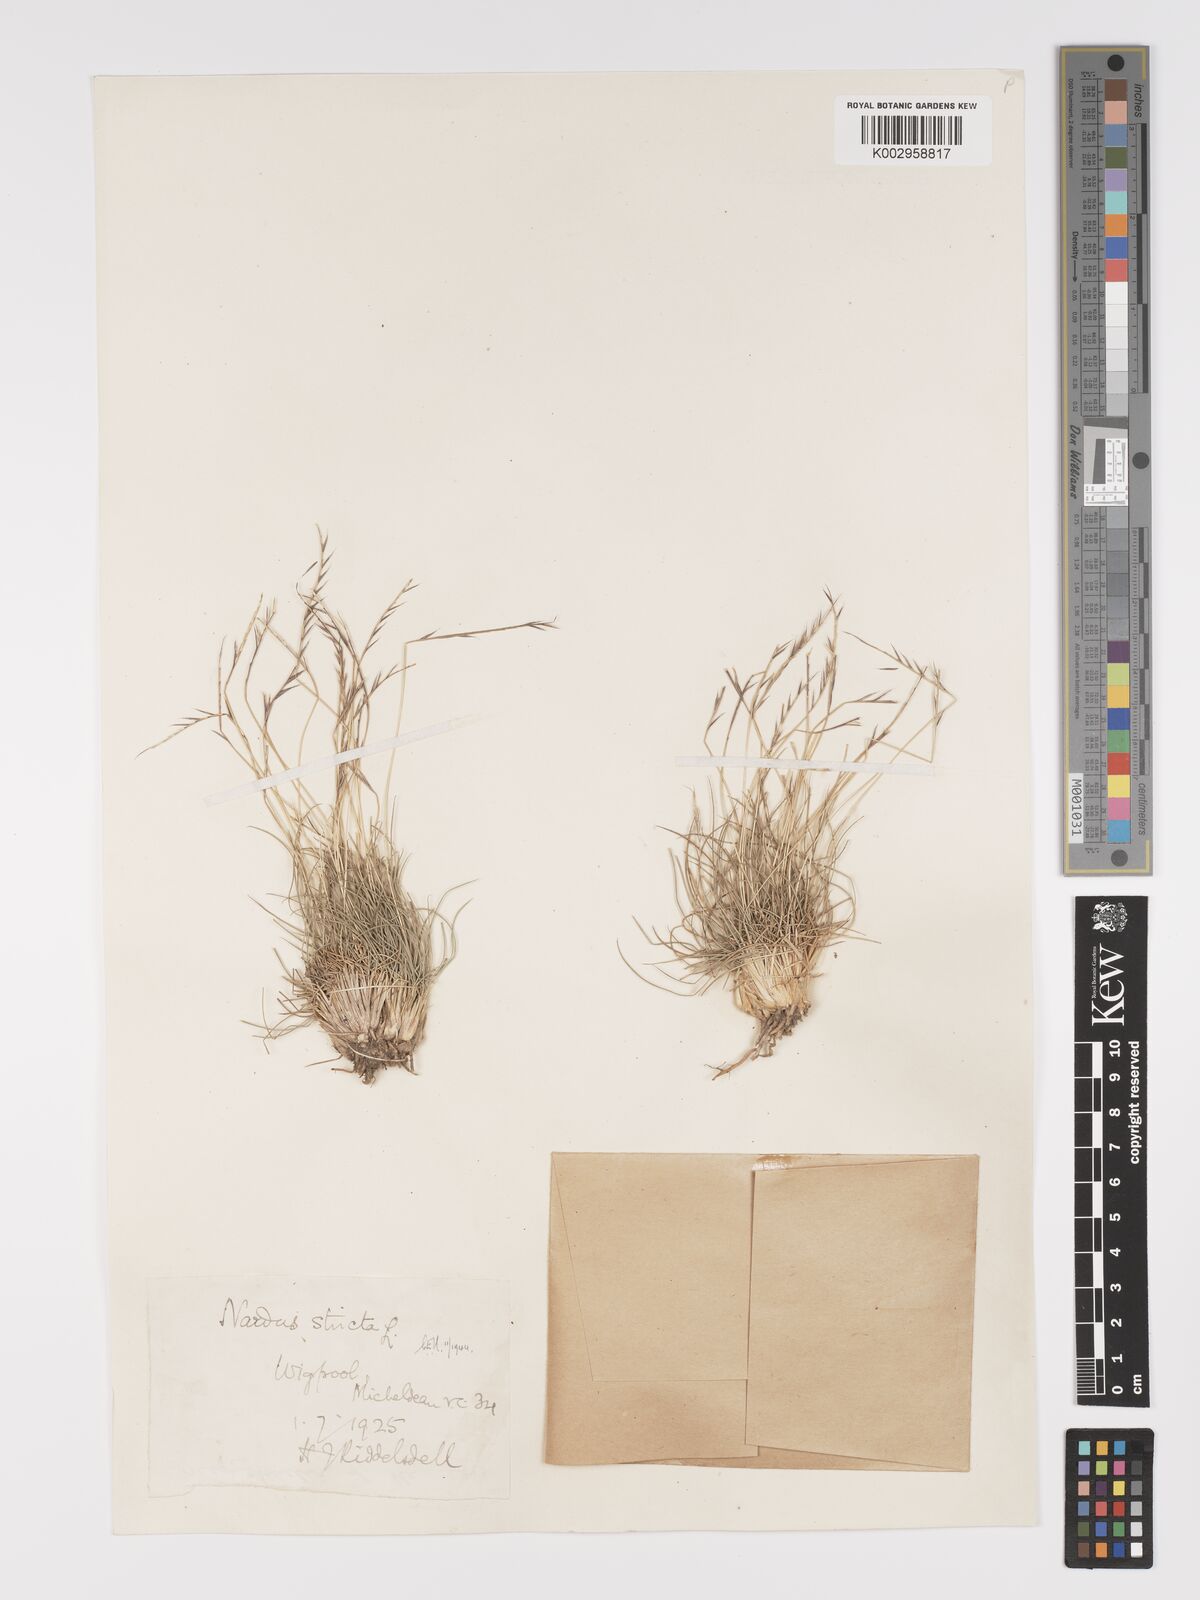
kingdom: Plantae
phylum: Tracheophyta
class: Liliopsida
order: Poales
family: Poaceae
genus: Nardus
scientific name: Nardus stricta
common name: Mat-grass
